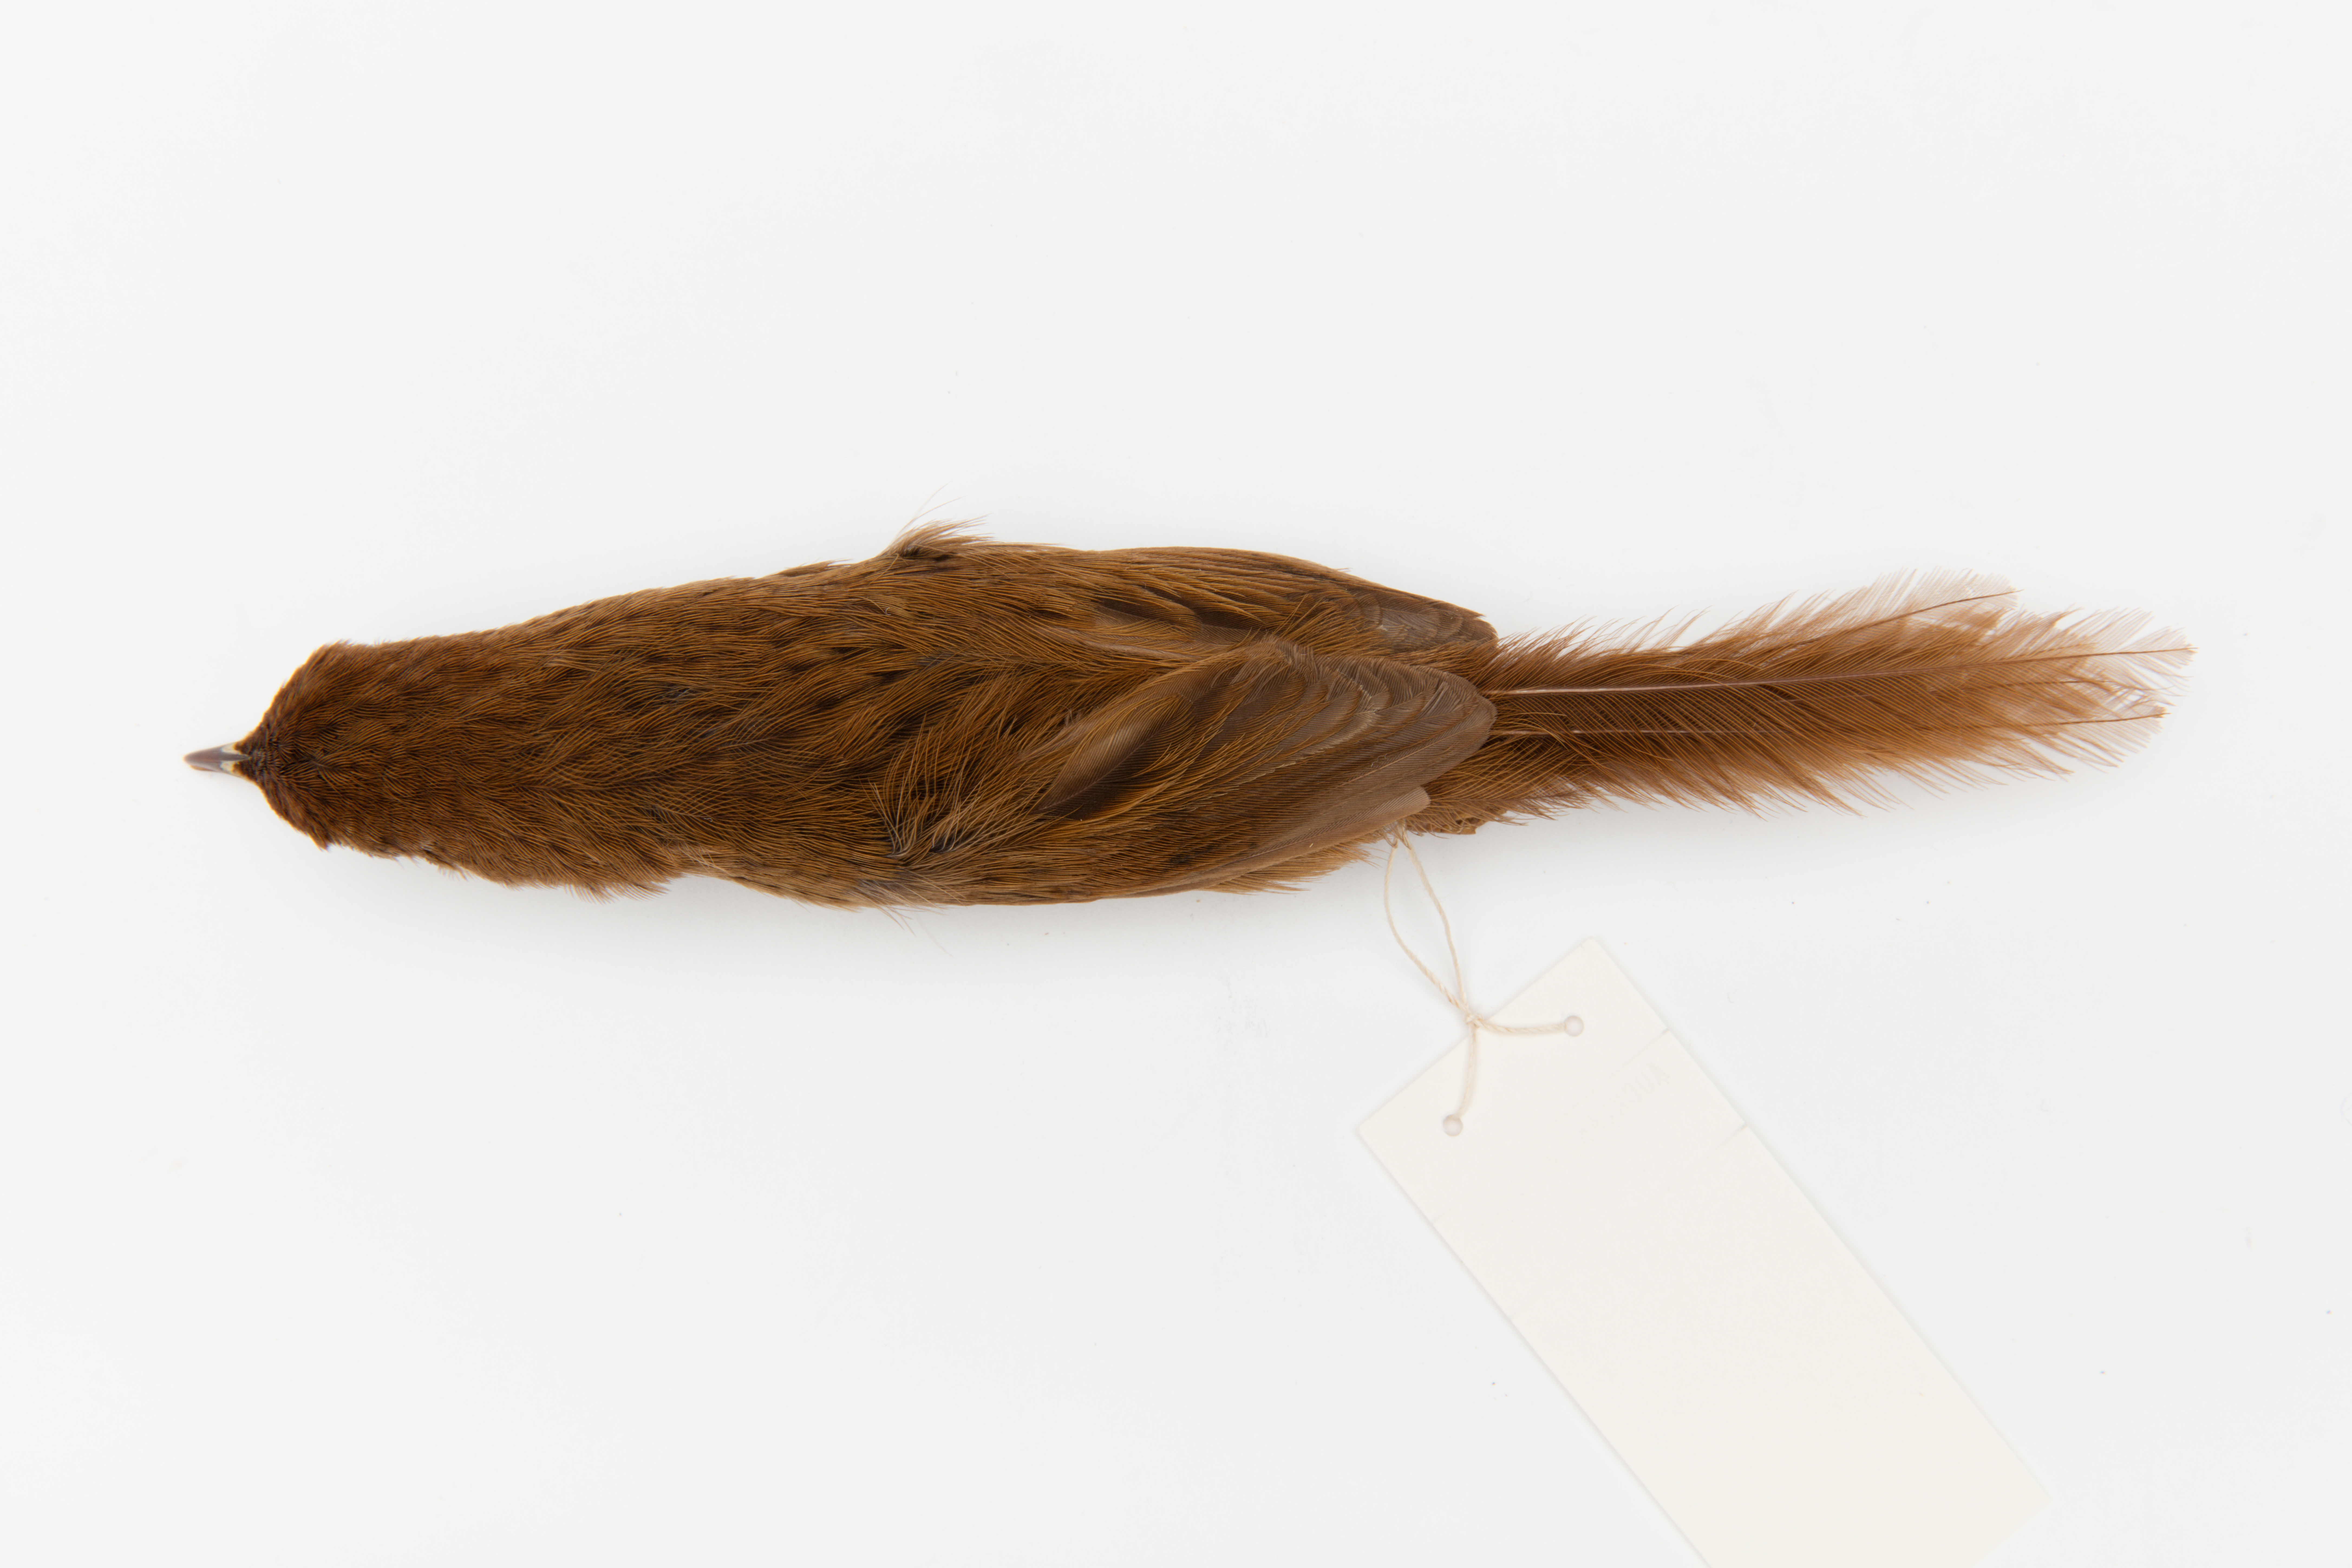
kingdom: Animalia
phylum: Chordata
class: Aves
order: Passeriformes
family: Locustellidae
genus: Megalurus
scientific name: Megalurus punctatus
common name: New zealand fernbird
